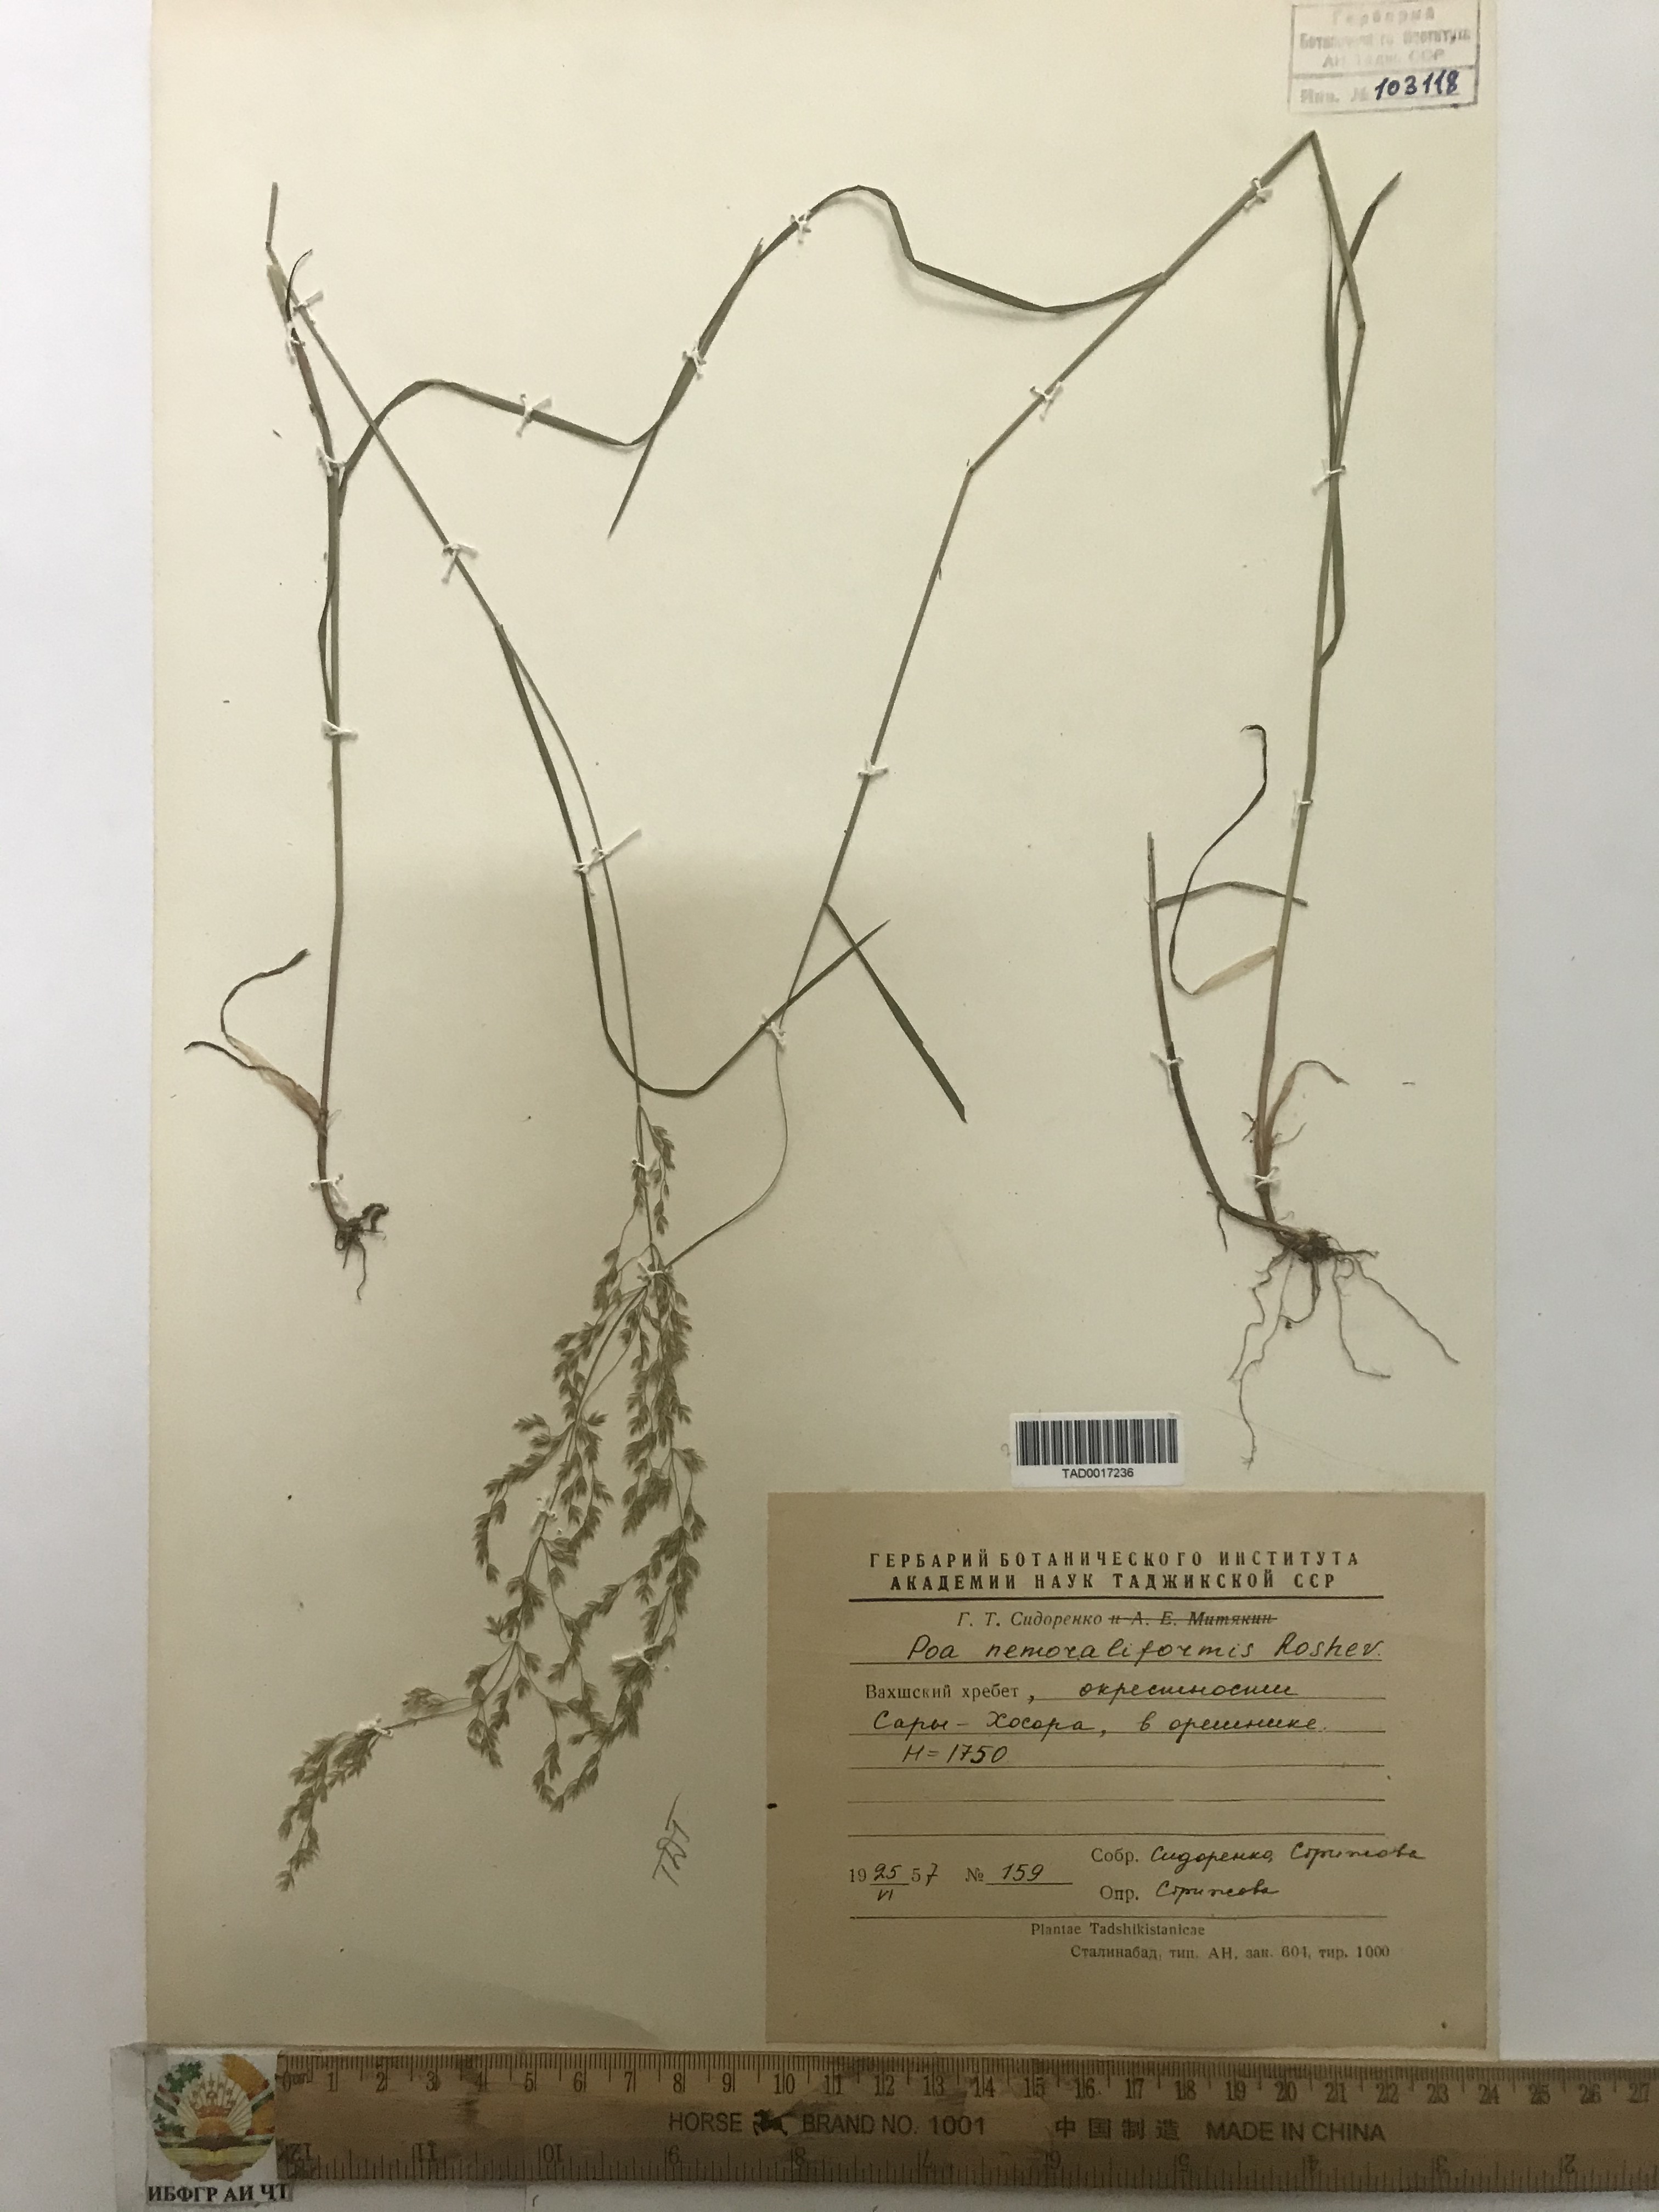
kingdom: Plantae
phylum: Tracheophyta
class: Liliopsida
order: Poales
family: Poaceae
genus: Poa
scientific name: Poa urssulensis
